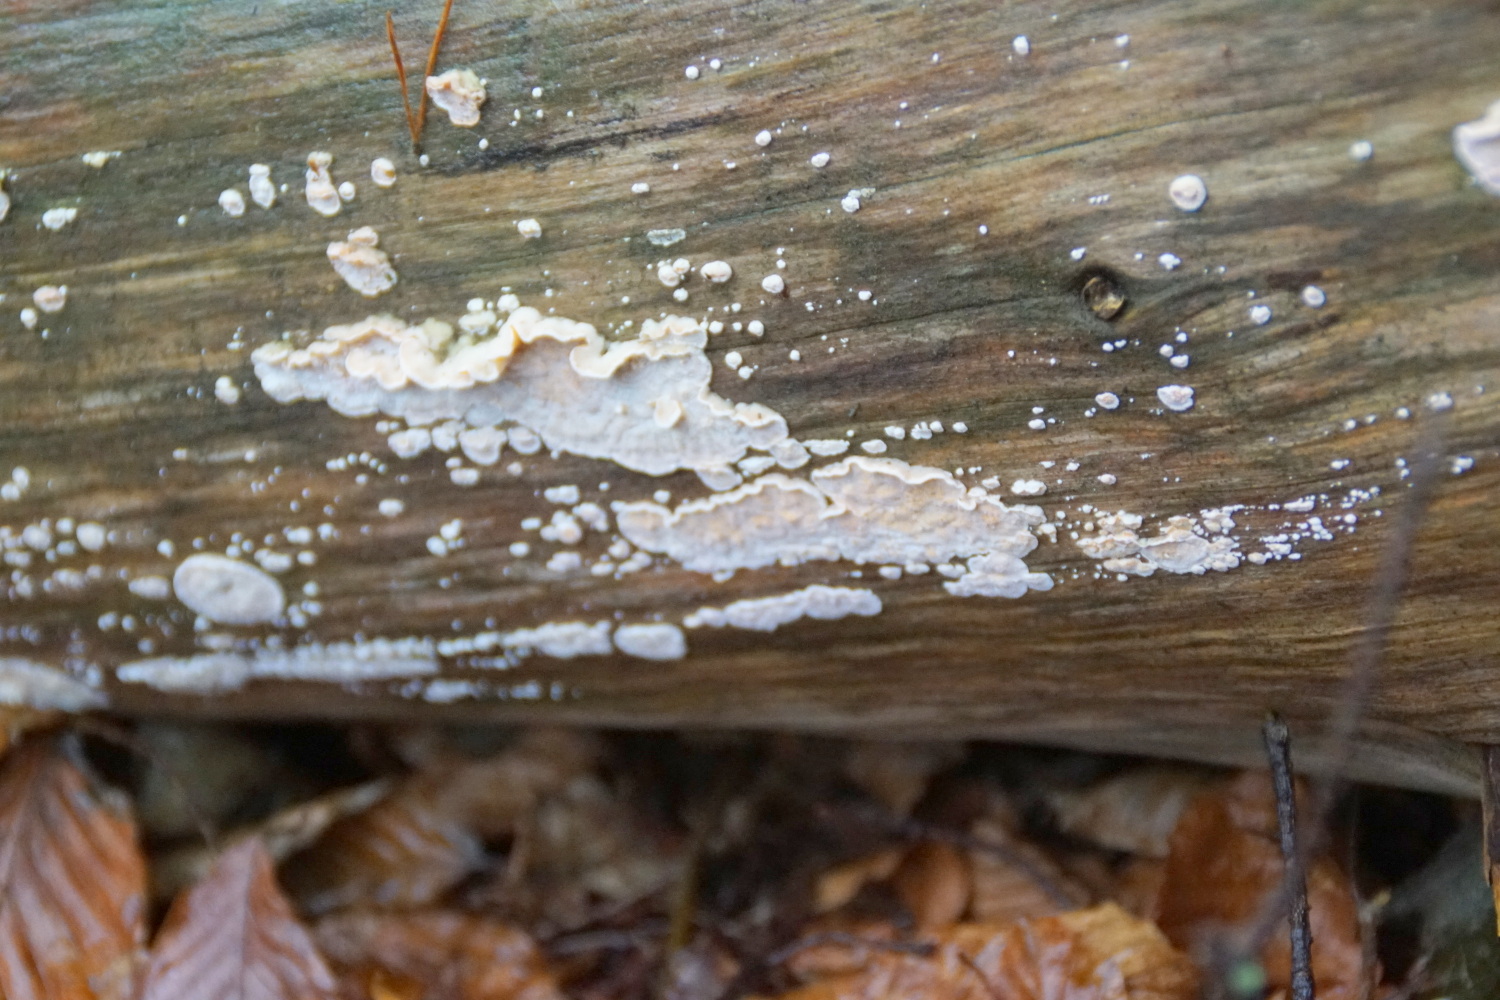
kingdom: Fungi
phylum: Basidiomycota
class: Agaricomycetes
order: Polyporales
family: Incrustoporiaceae
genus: Skeletocutis
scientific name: Skeletocutis amorpha
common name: orange krystalporesvamp
